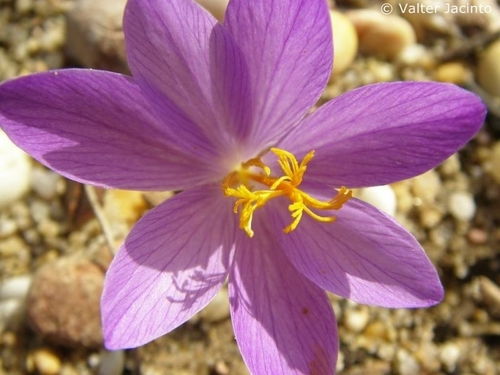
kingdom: Plantae
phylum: Tracheophyta
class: Liliopsida
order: Asparagales
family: Iridaceae
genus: Crocus
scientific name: Crocus serotinus
